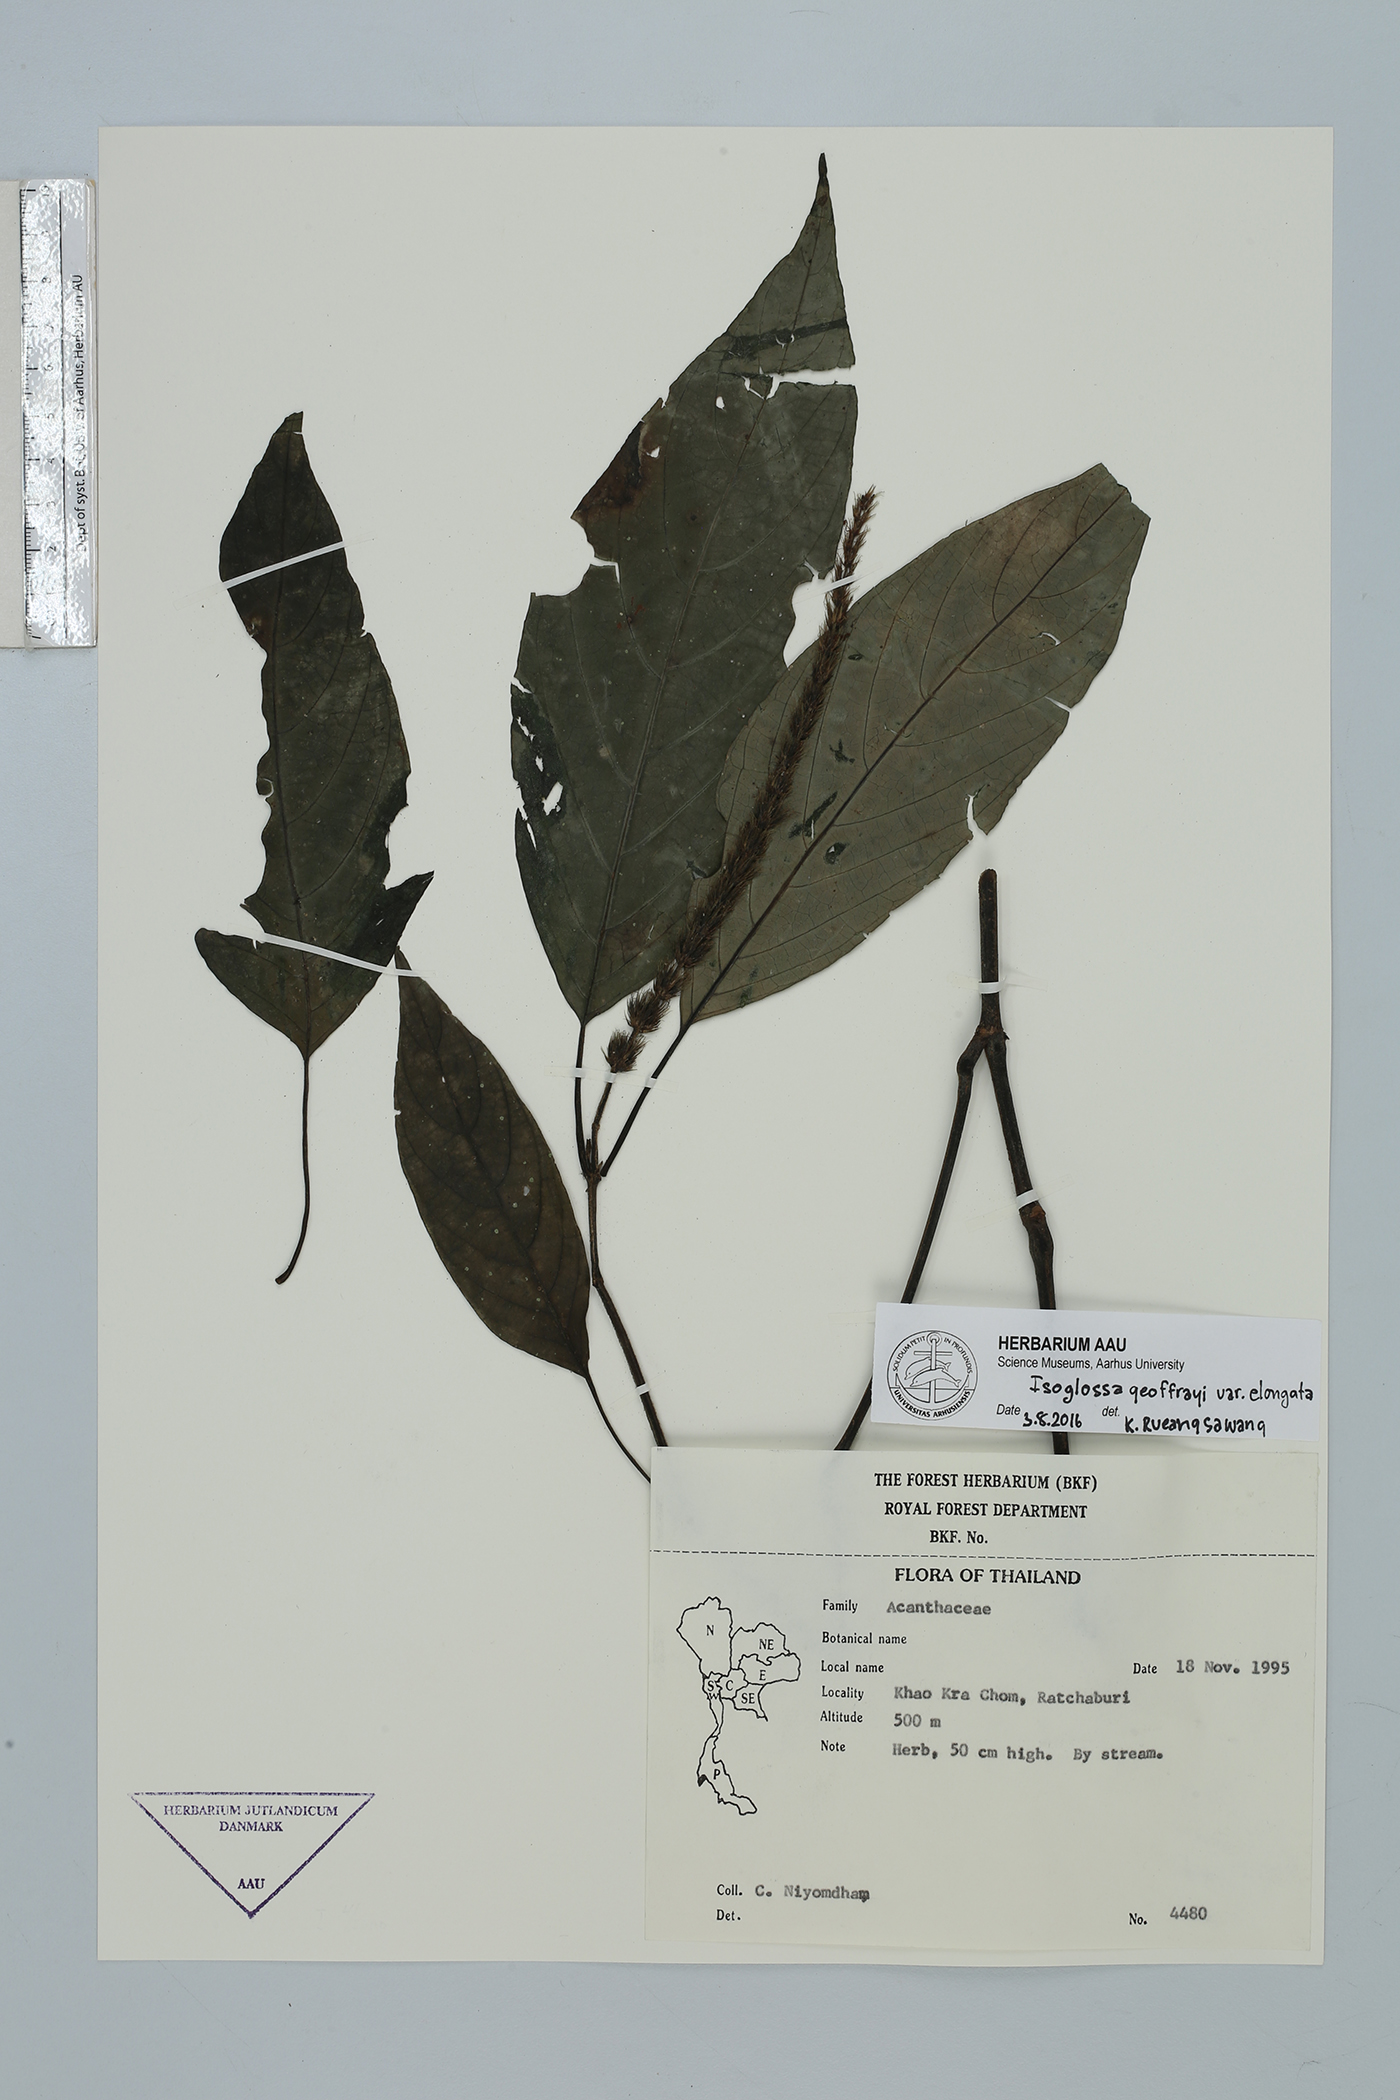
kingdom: Plantae
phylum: Tracheophyta
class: Magnoliopsida
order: Lamiales
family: Acanthaceae
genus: Isoglossa
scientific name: Isoglossa geoffrayi
